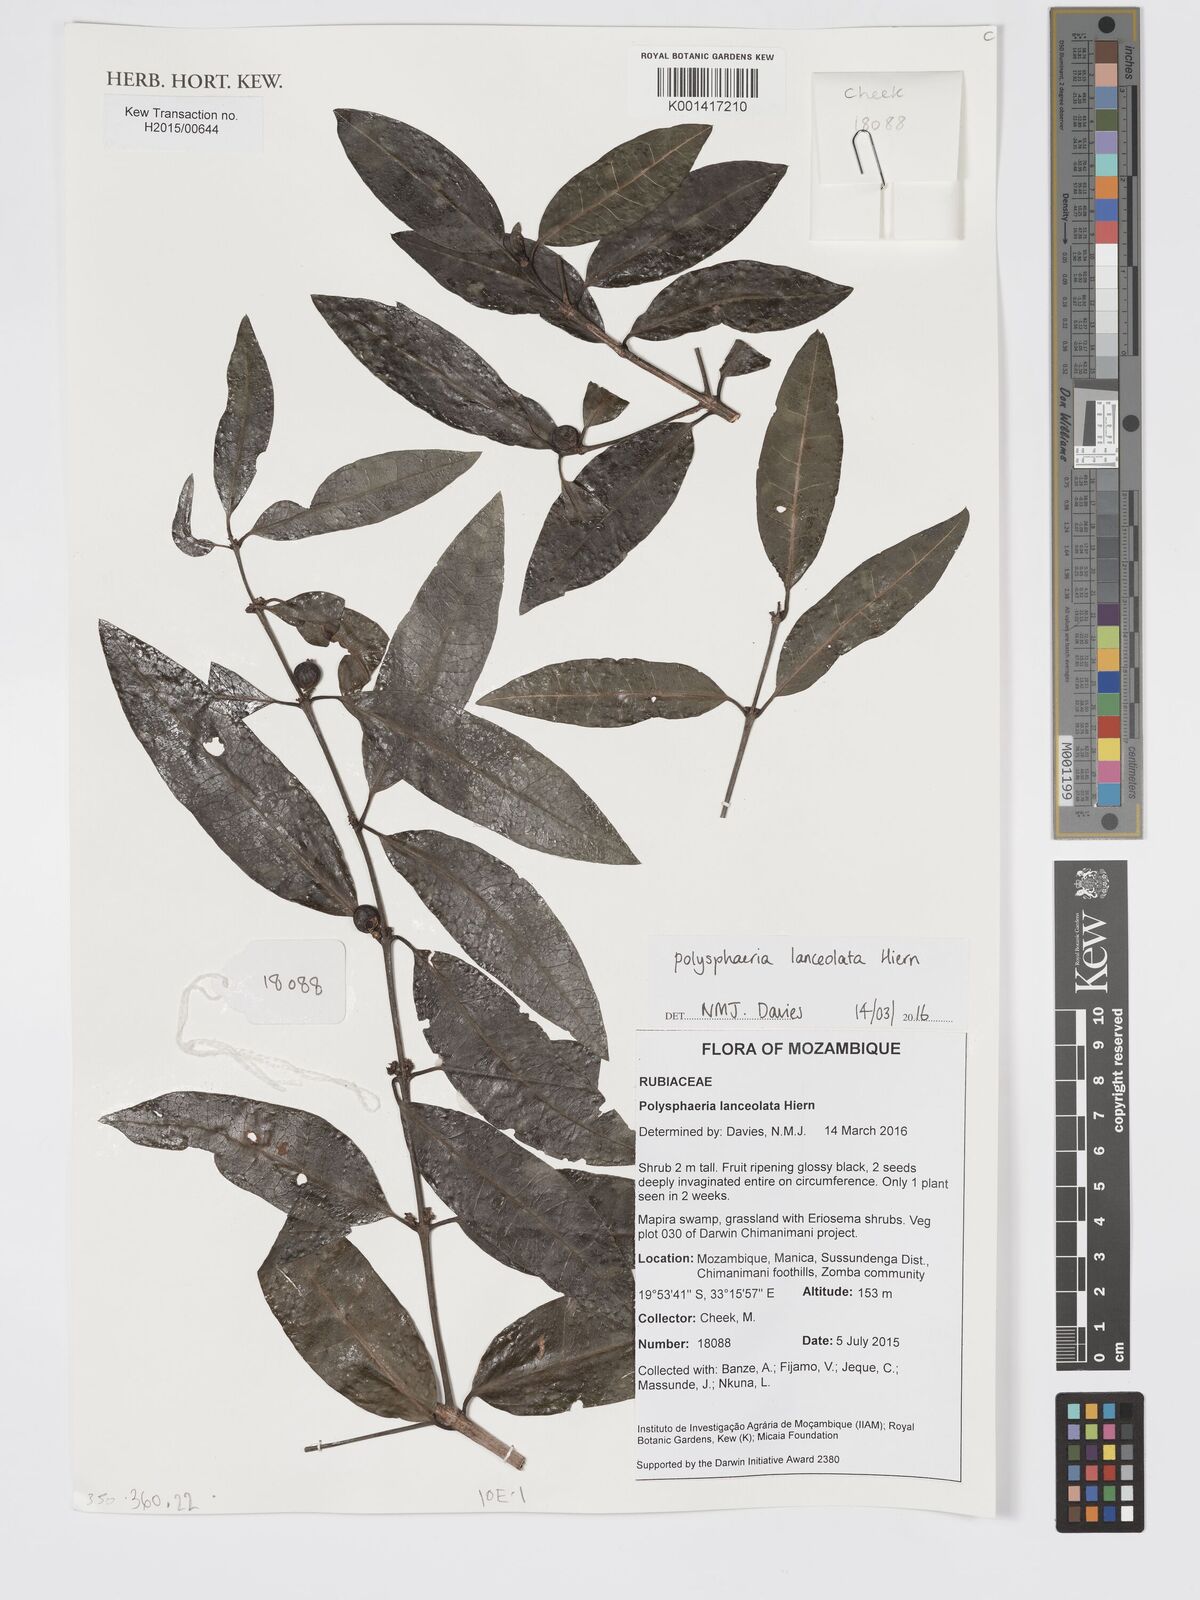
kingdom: Plantae
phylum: Tracheophyta
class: Magnoliopsida
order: Gentianales
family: Rubiaceae
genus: Polysphaeria
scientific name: Polysphaeria lanceolata
